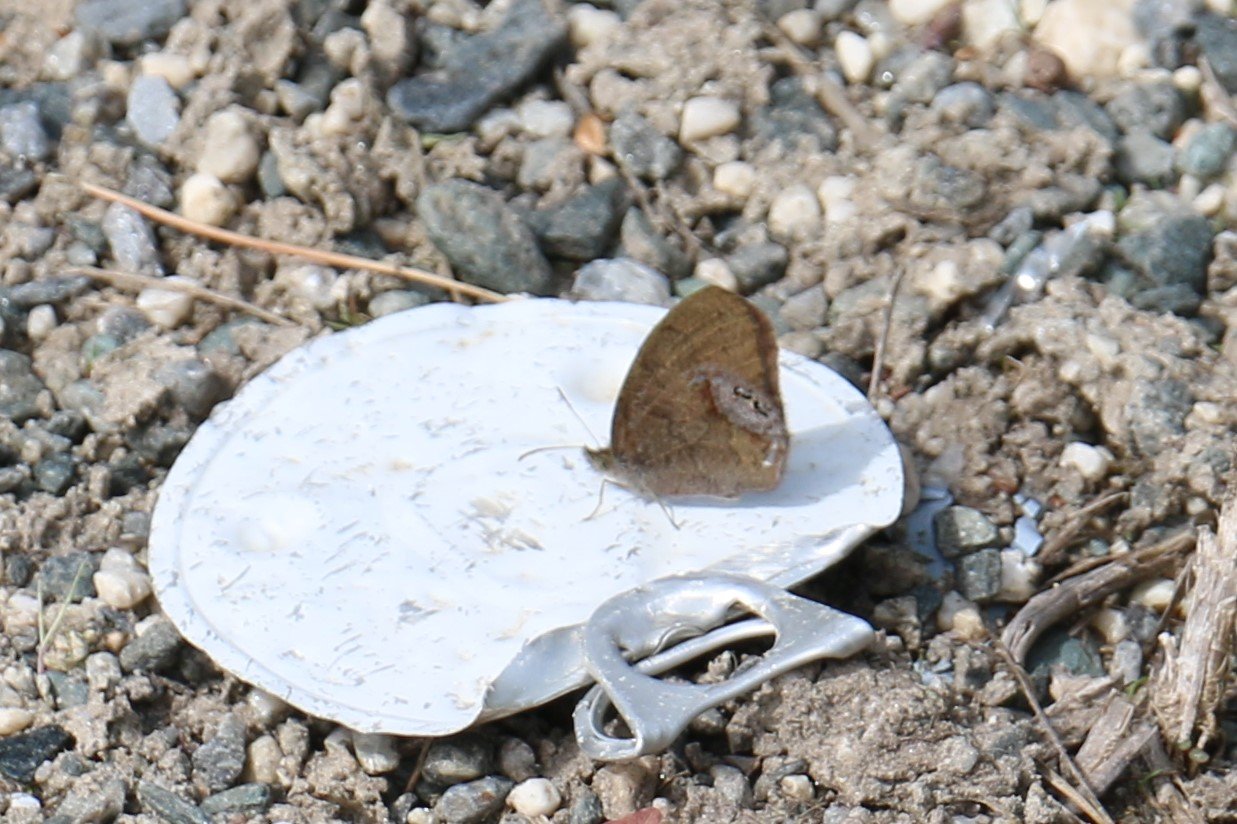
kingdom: Animalia
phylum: Arthropoda
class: Insecta
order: Lepidoptera
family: Nymphalidae
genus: Euptychia
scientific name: Euptychia cornelius
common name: Gemmed Satyr
